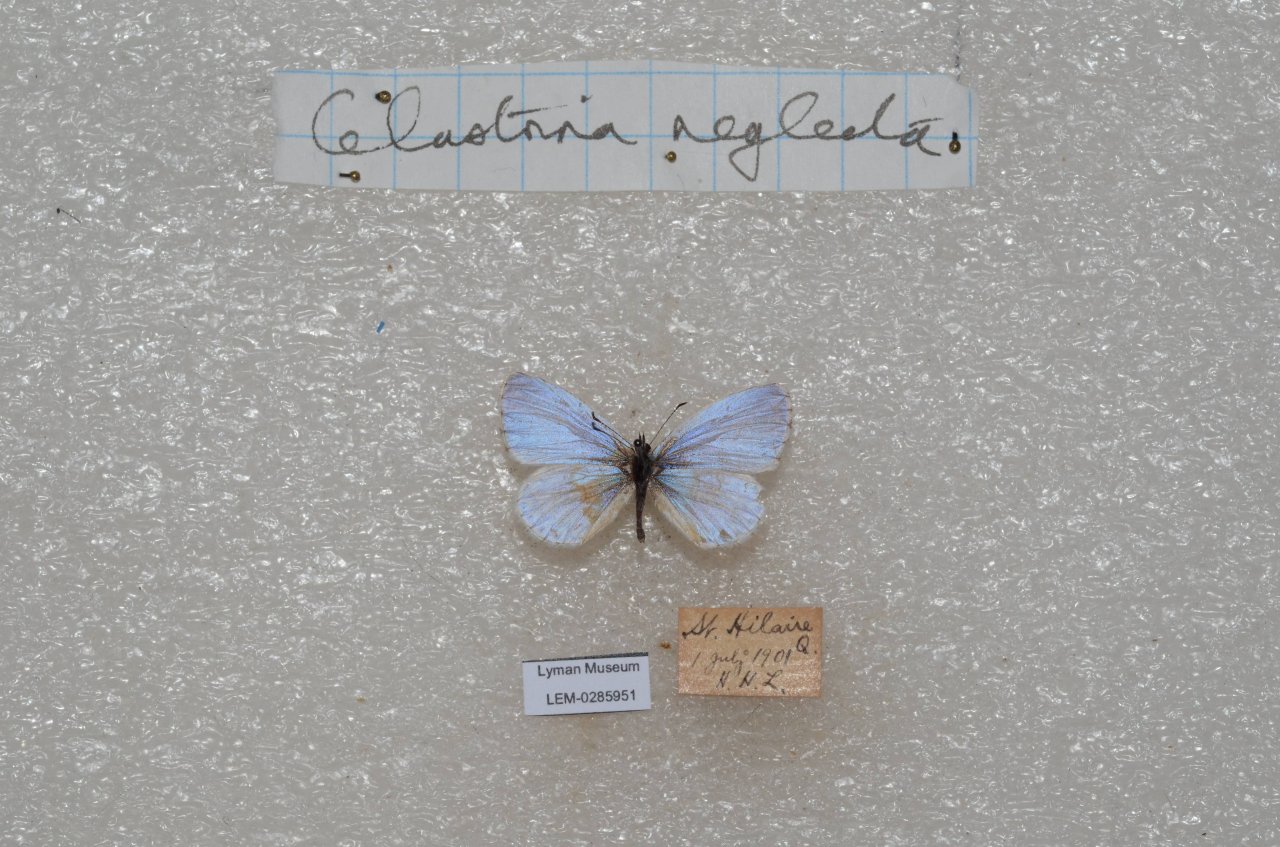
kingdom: Animalia
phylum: Arthropoda
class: Insecta
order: Lepidoptera
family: Lycaenidae
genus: Cyaniris
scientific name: Cyaniris neglecta
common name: Summer Azure
